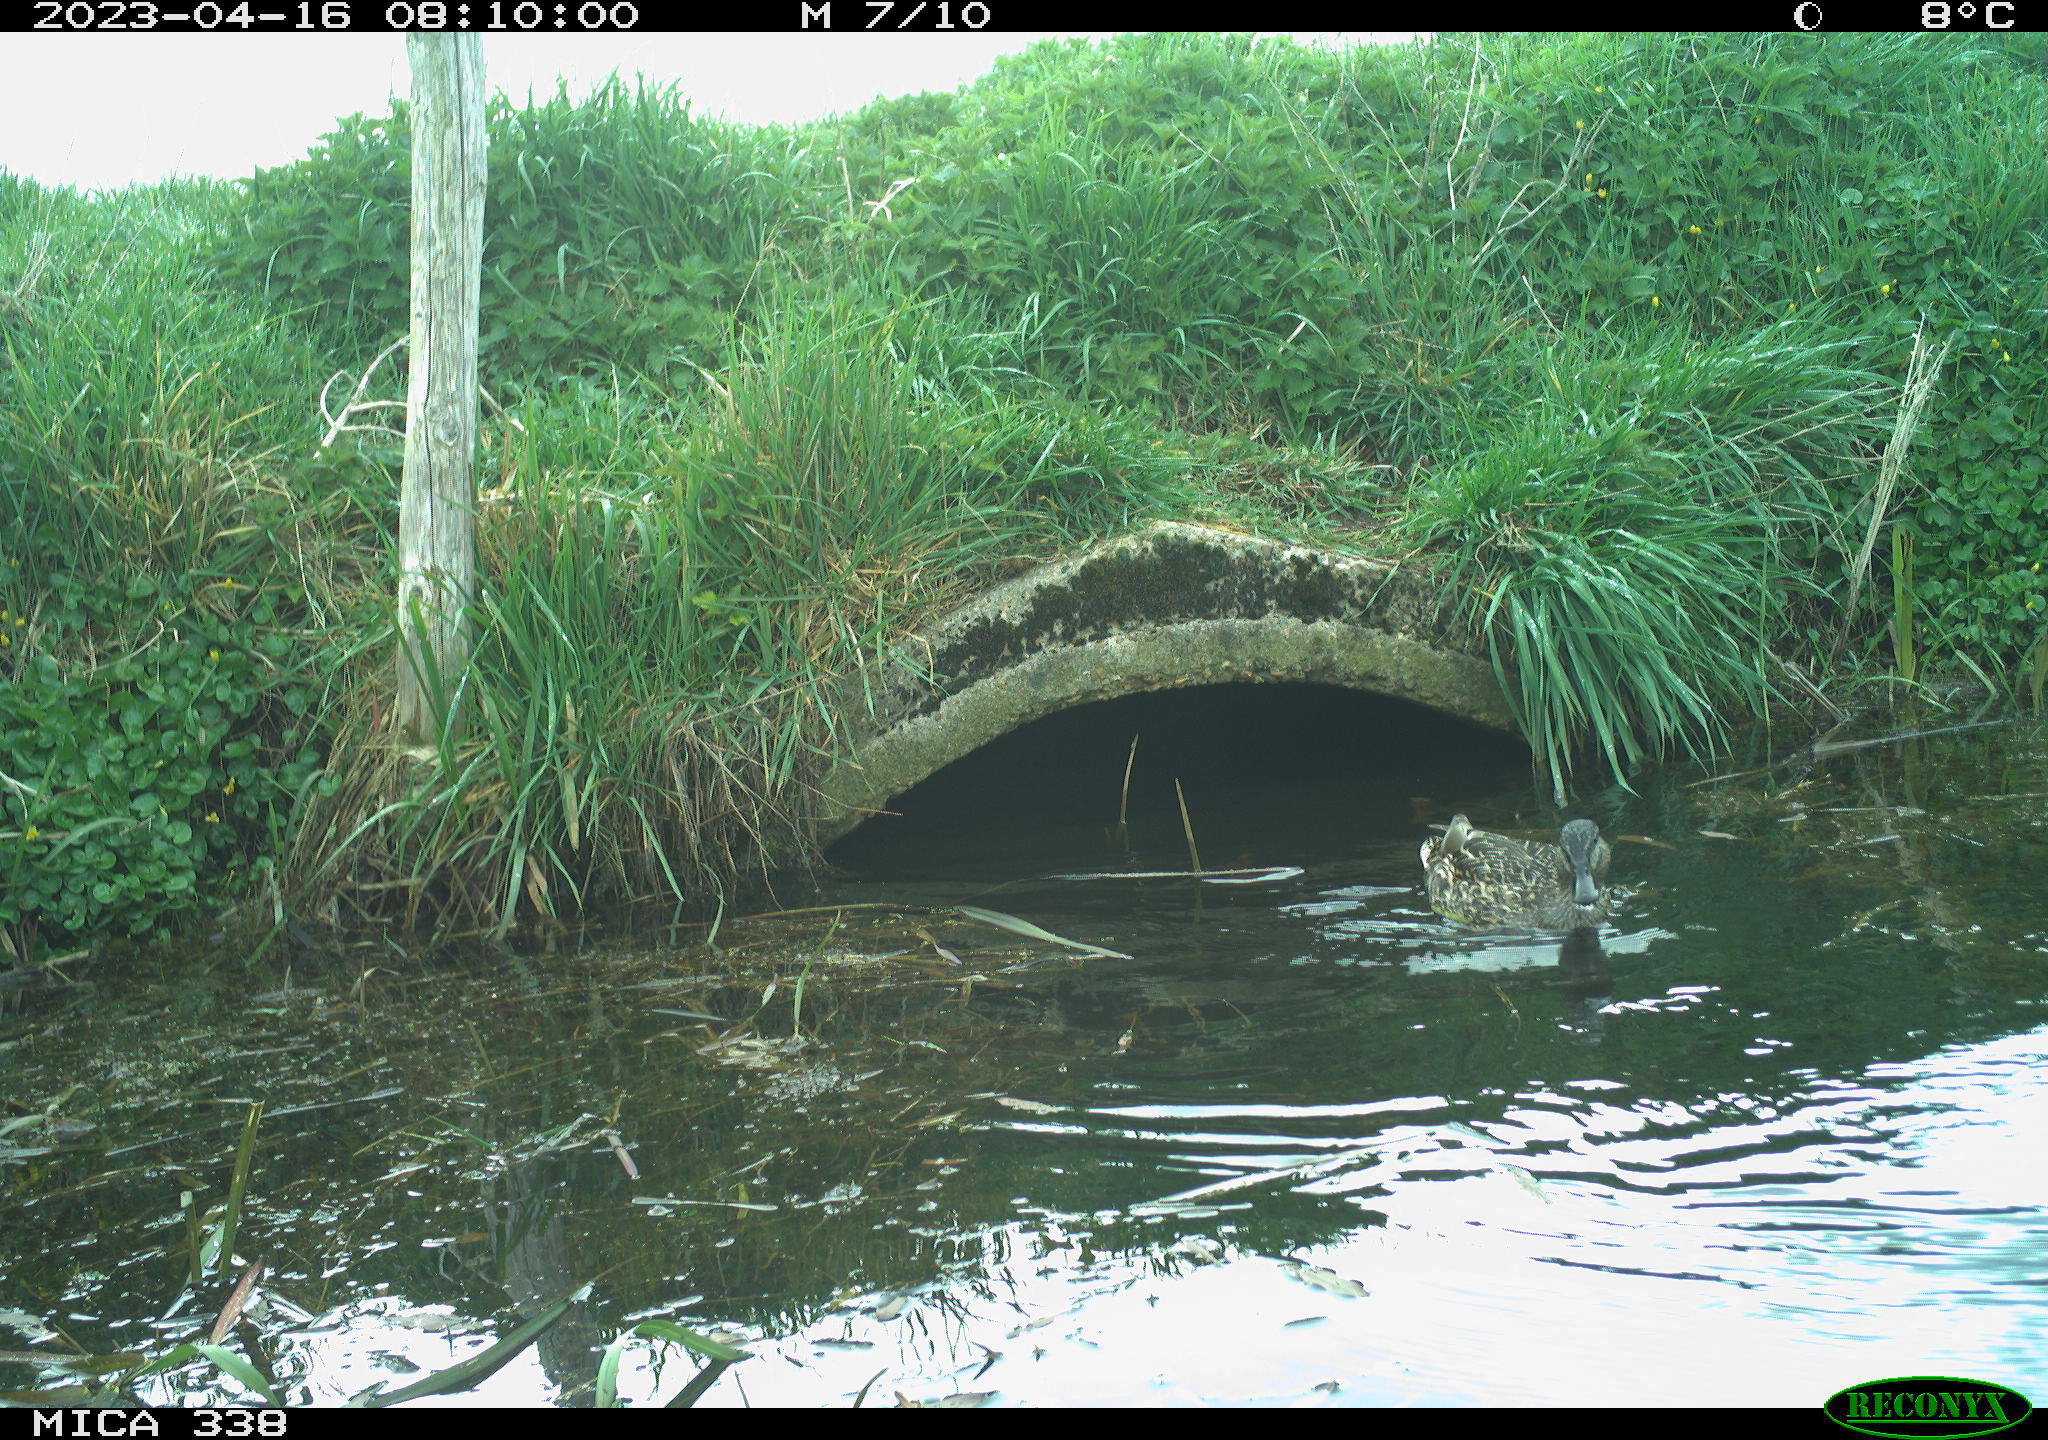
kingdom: Animalia
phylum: Chordata
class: Aves
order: Anseriformes
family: Anatidae
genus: Anas
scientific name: Anas platyrhynchos
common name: Mallard
